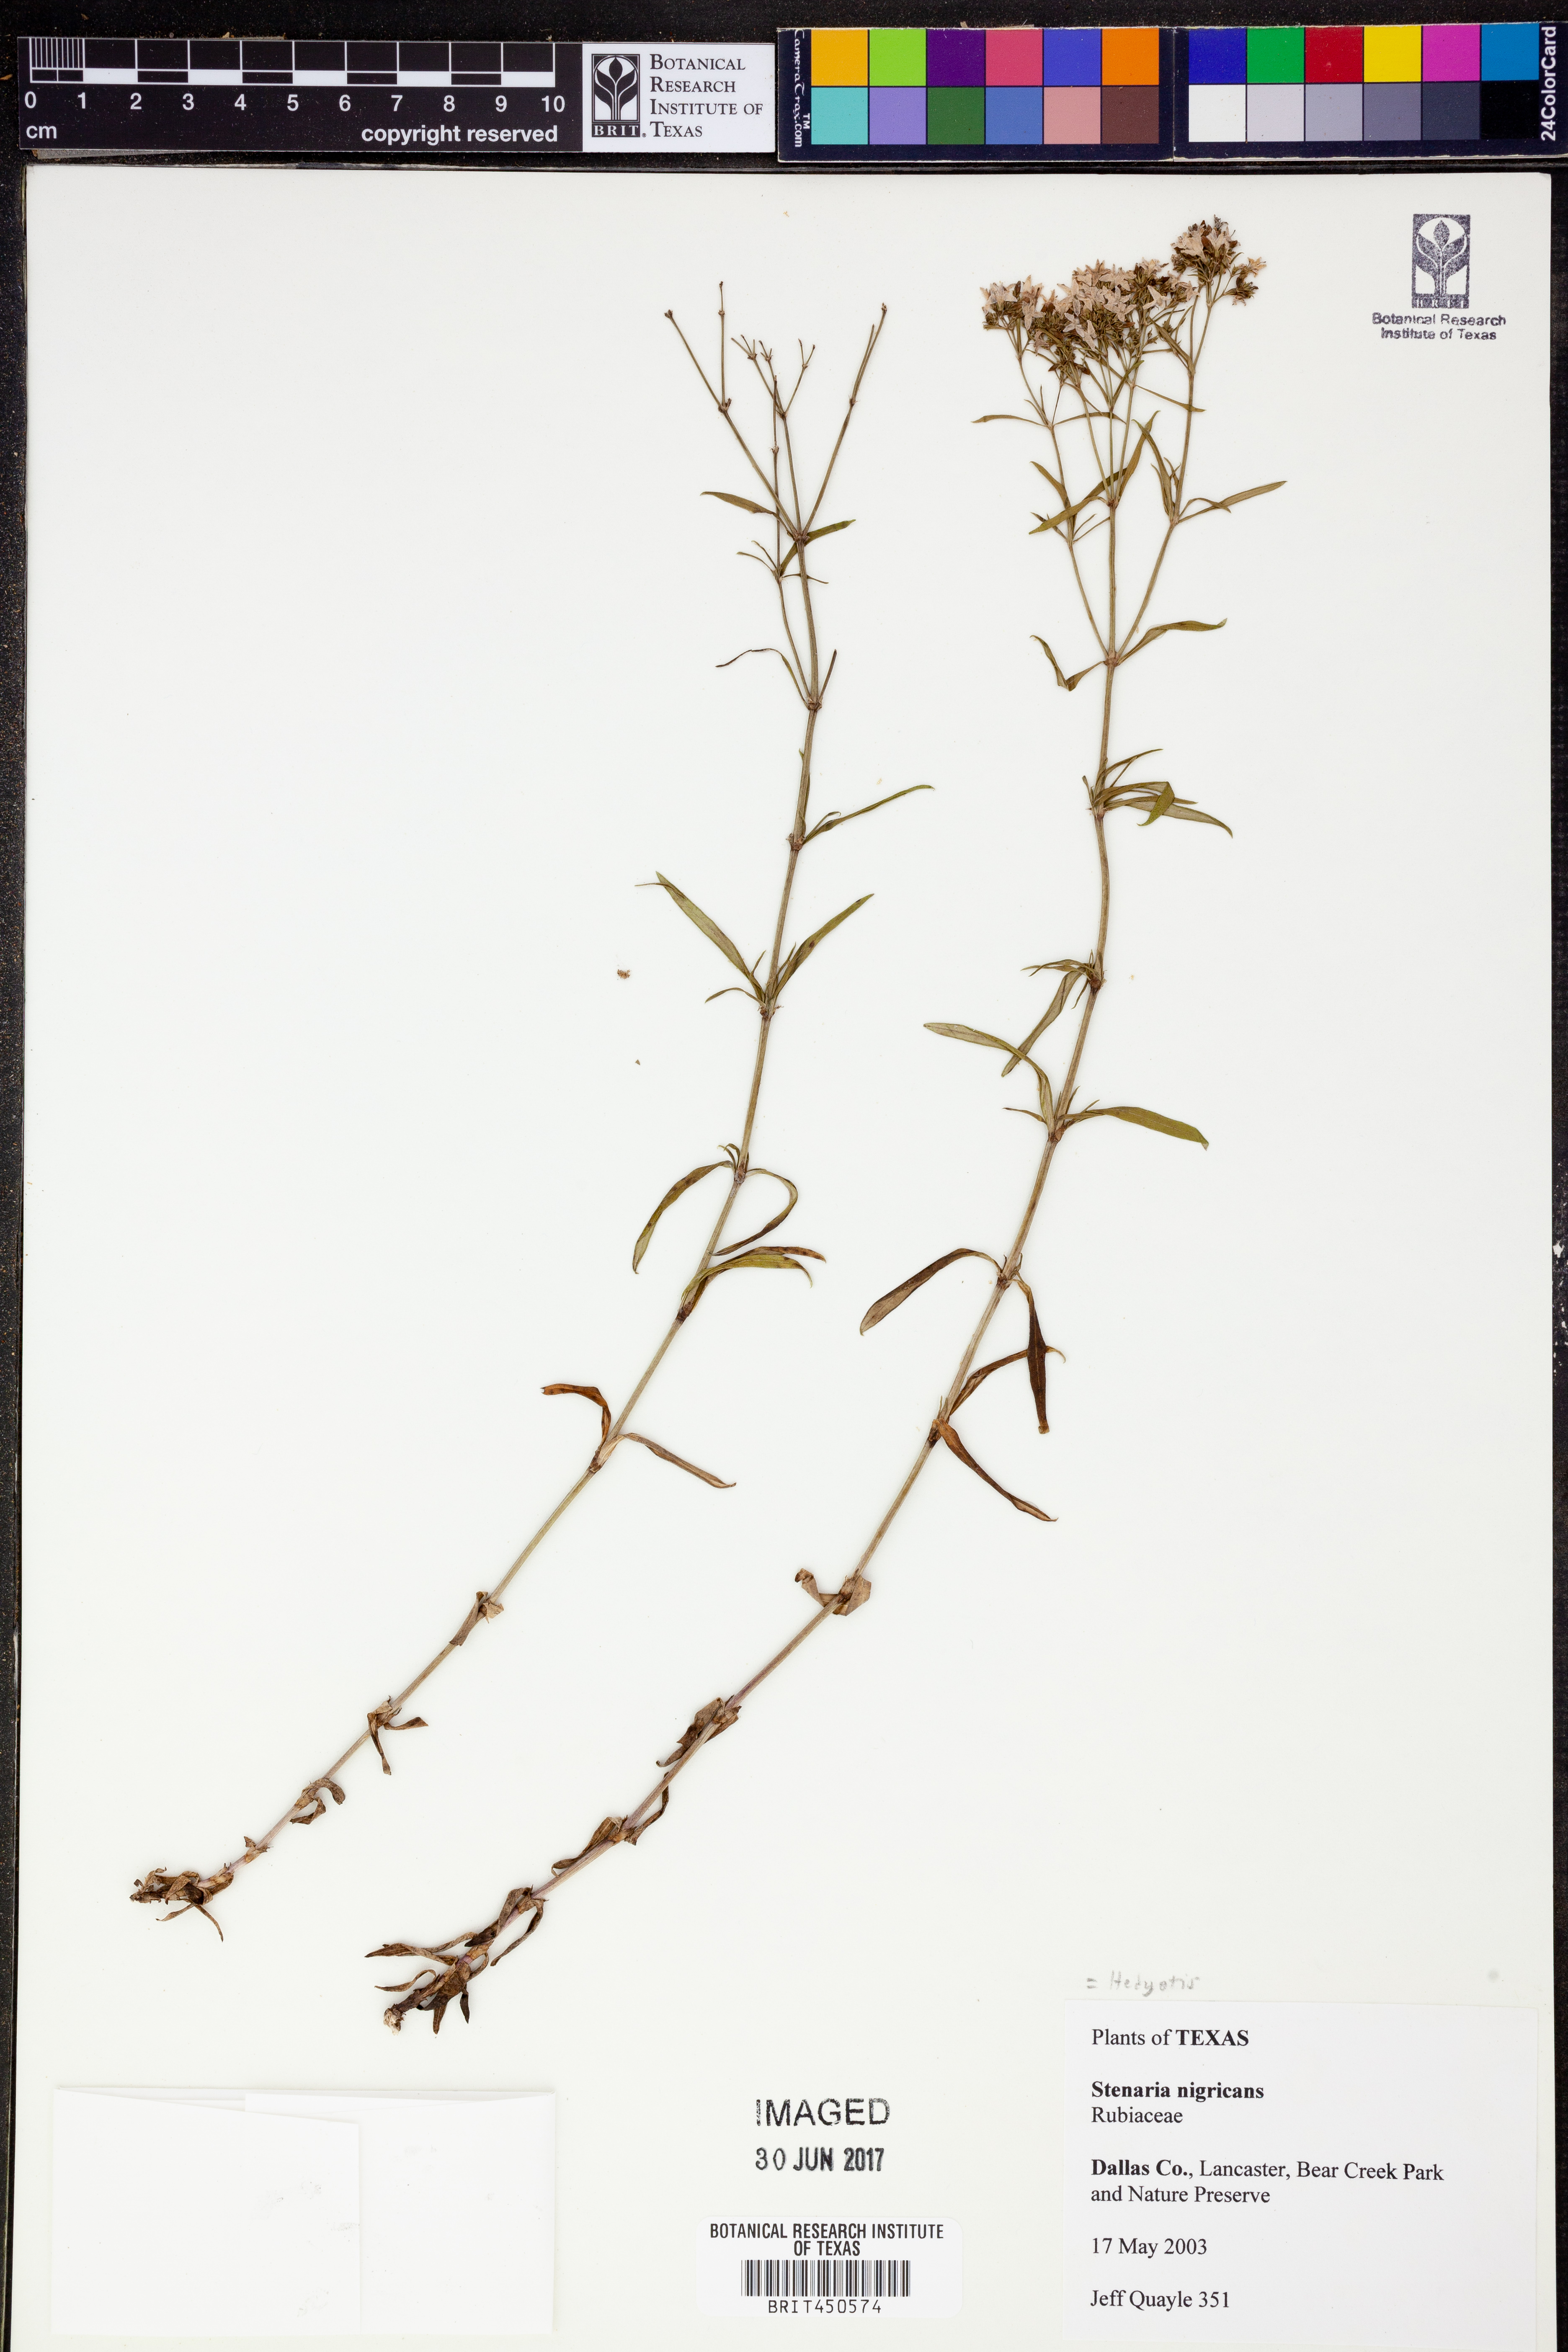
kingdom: Plantae
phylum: Tracheophyta
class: Magnoliopsida
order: Gentianales
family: Rubiaceae
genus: Stenaria
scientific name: Stenaria nigricans
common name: Diamondflowers
